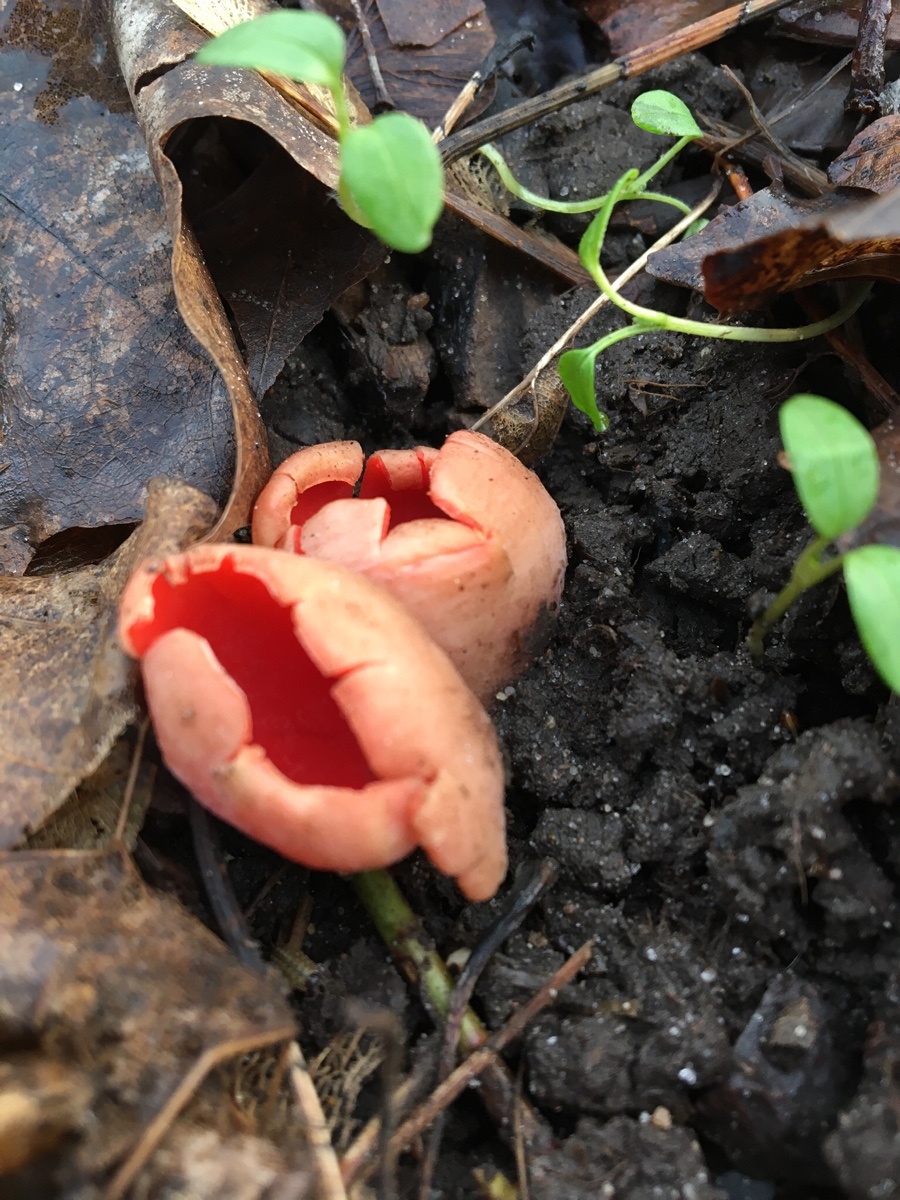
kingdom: Fungi
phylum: Ascomycota
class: Pezizomycetes
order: Pezizales
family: Sarcoscyphaceae
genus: Sarcoscypha
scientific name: Sarcoscypha austriaca
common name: krølhåret pragtbæger
